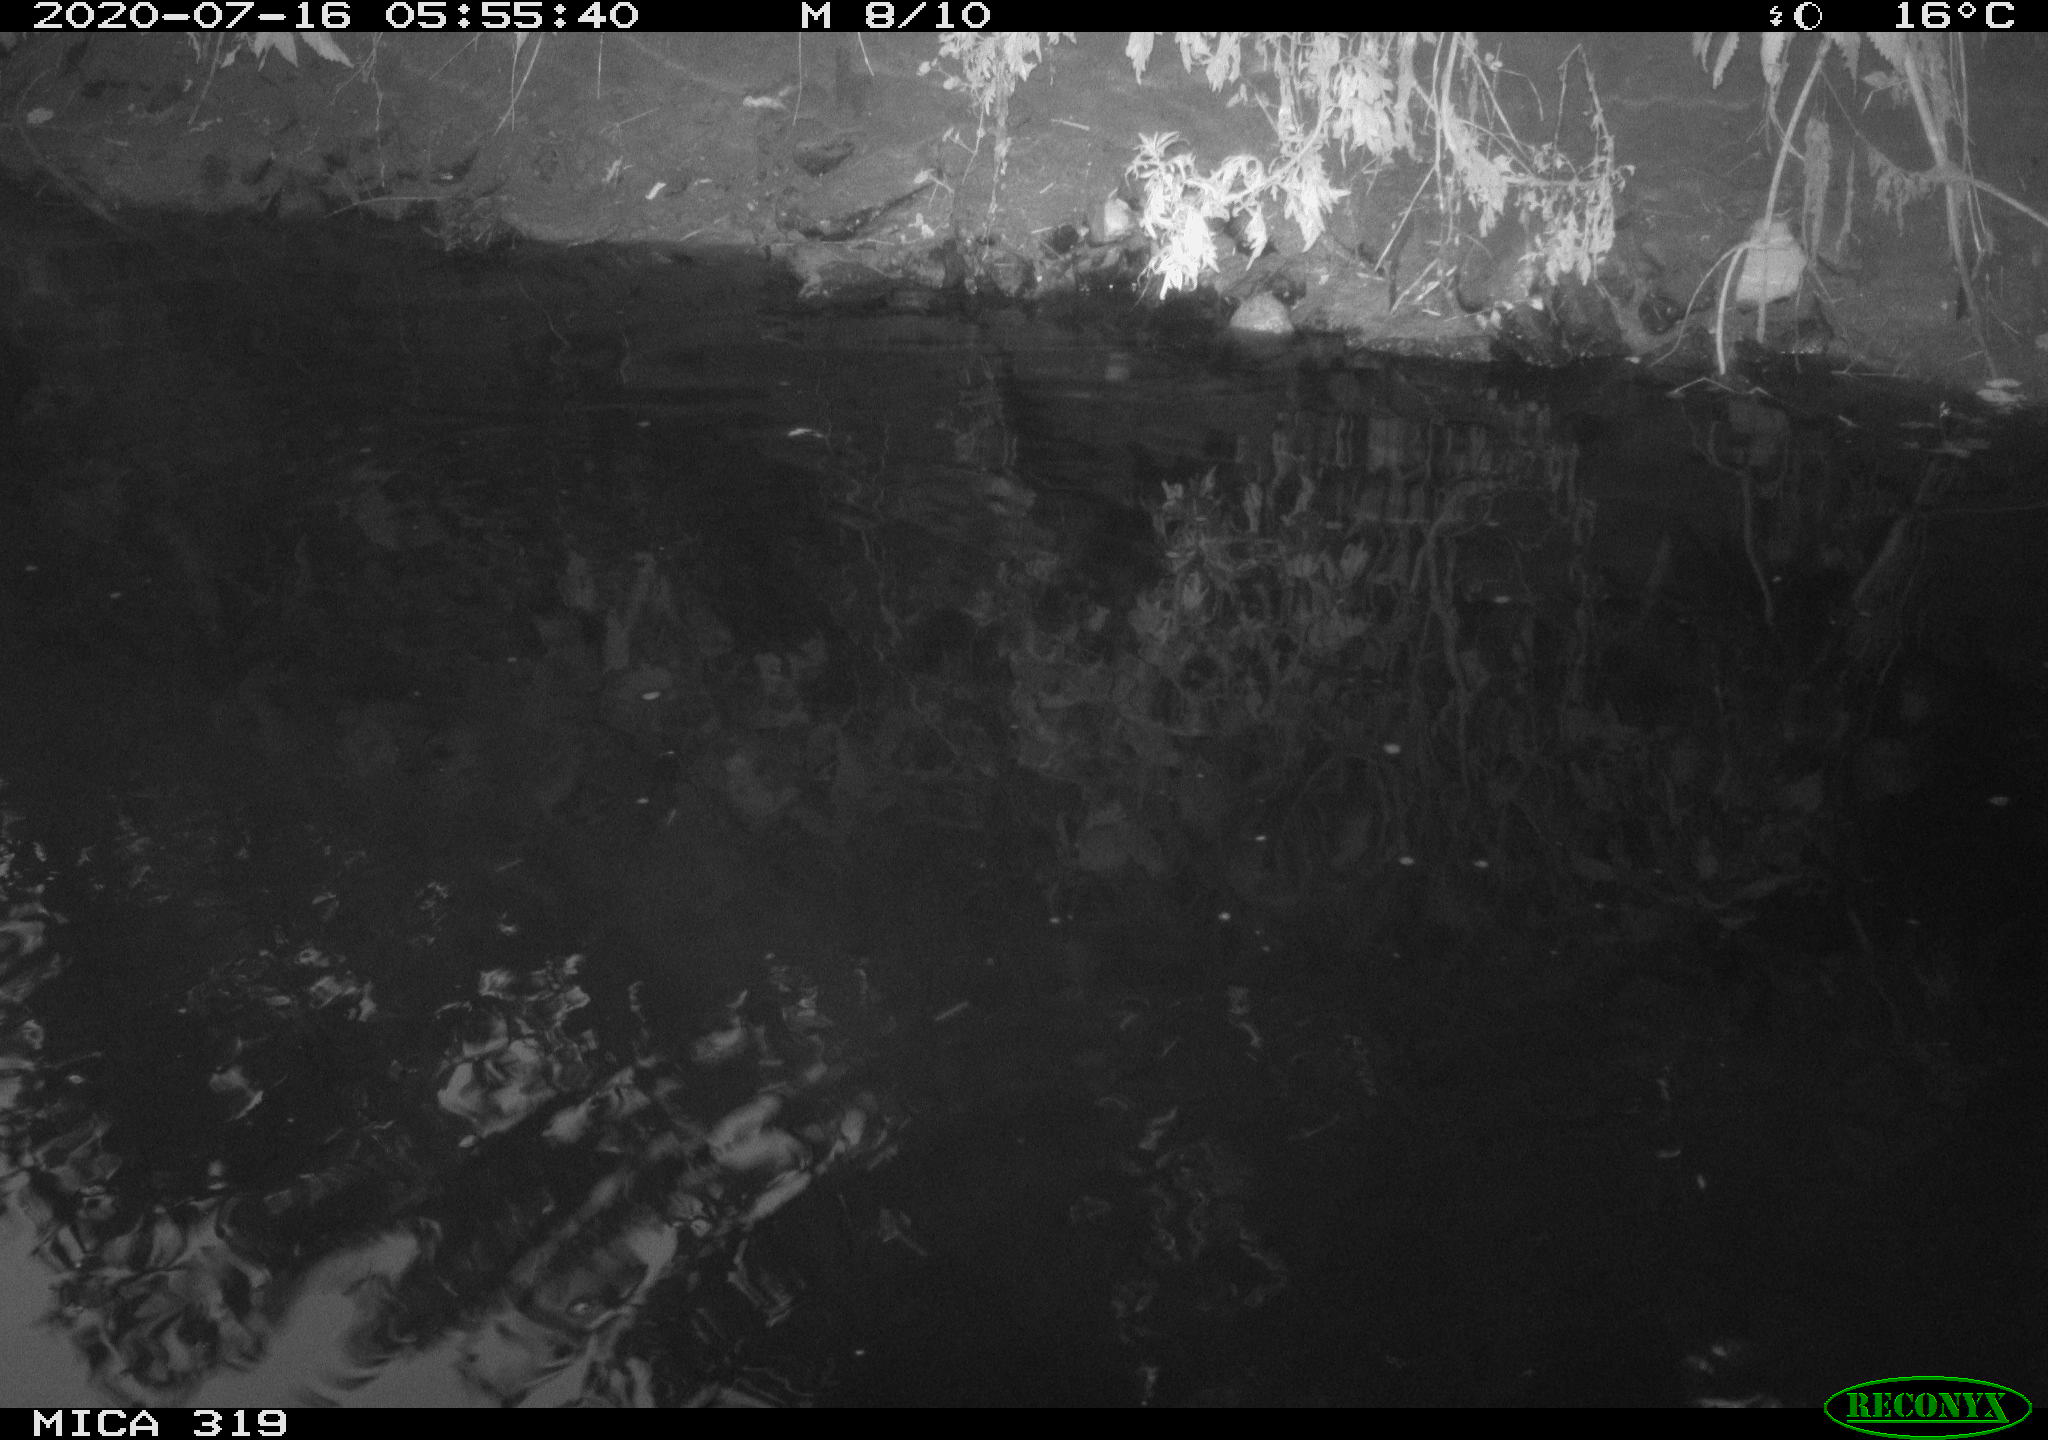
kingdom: Animalia
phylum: Chordata
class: Aves
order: Anseriformes
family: Anatidae
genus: Anas
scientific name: Anas platyrhynchos
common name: Mallard
